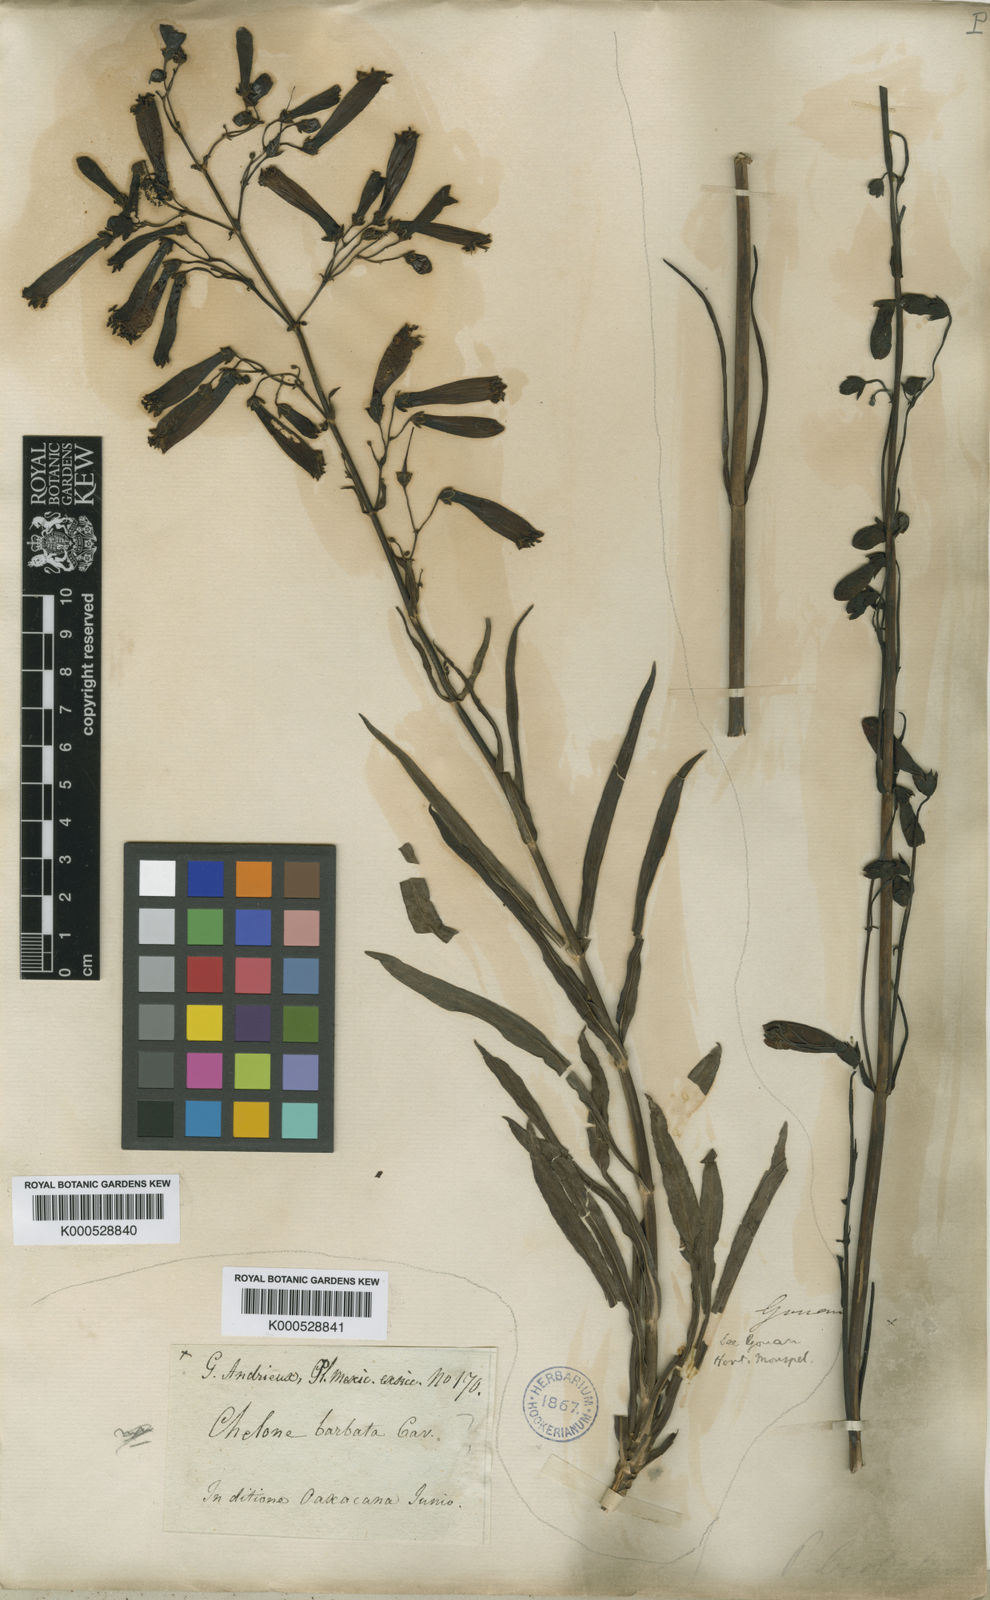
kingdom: Plantae
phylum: Tracheophyta
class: Magnoliopsida
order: Lamiales
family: Plantaginaceae
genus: Penstemon
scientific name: Penstemon barbatus
